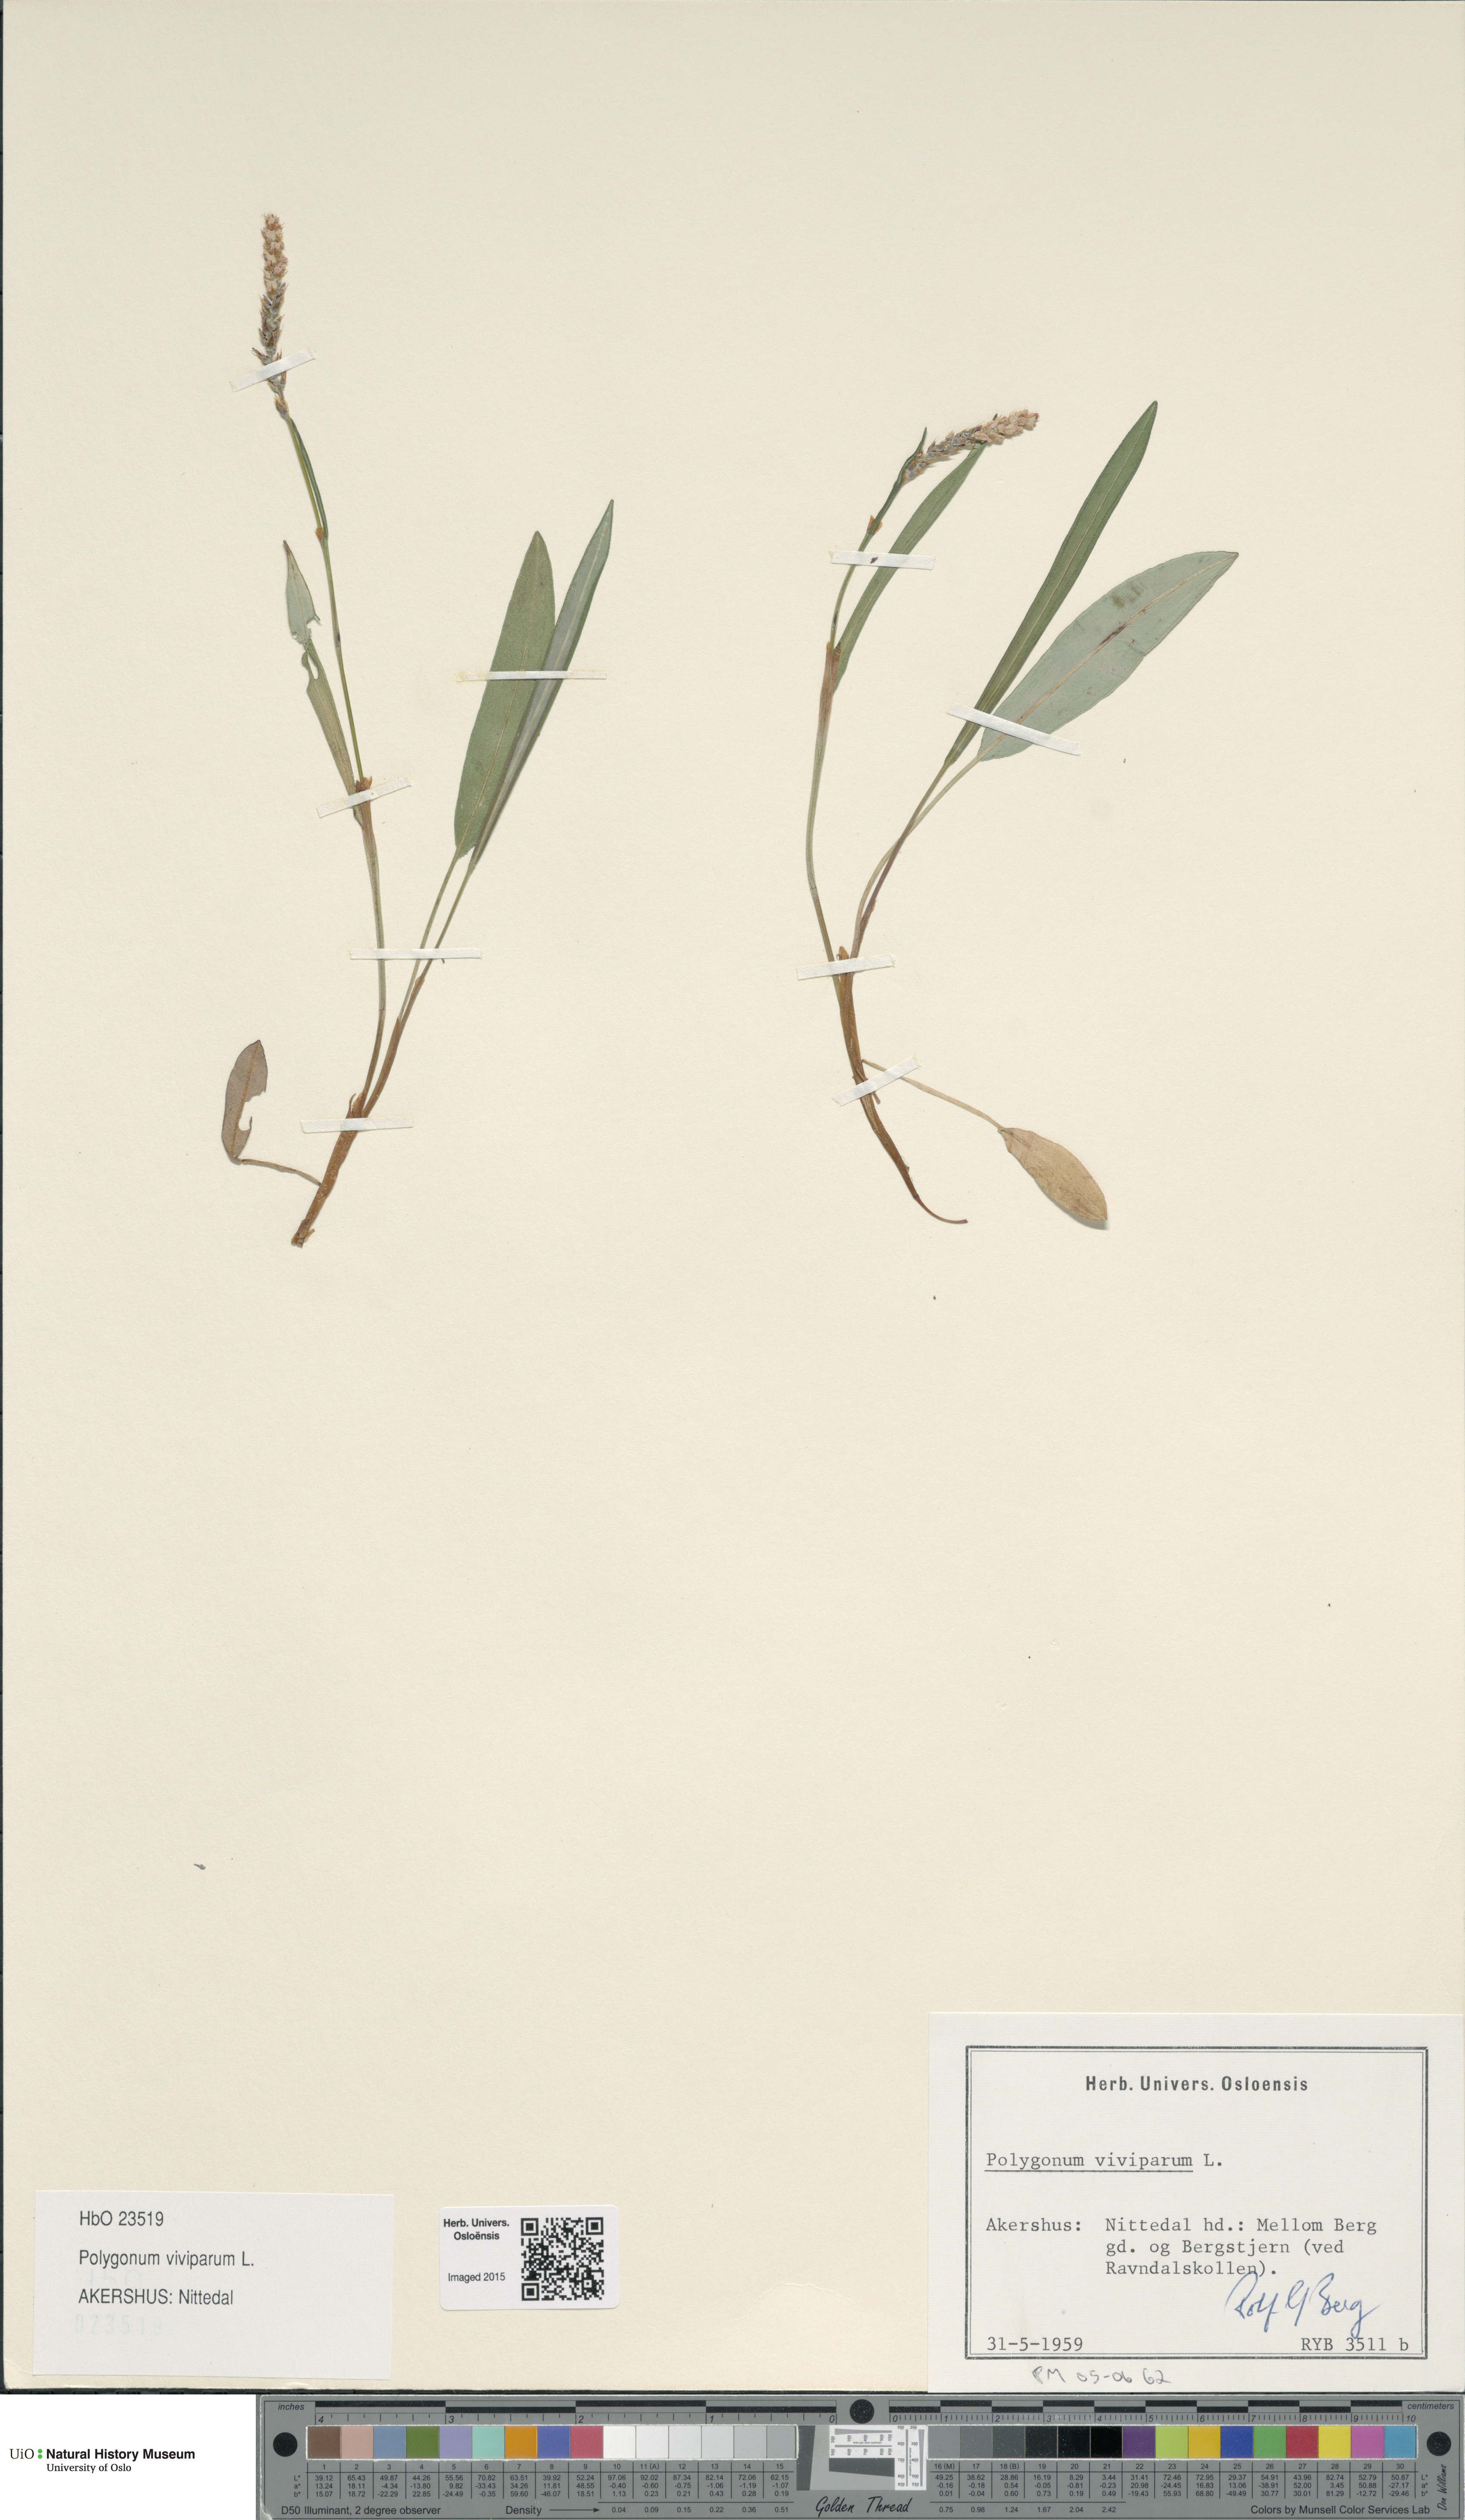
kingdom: Plantae
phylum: Tracheophyta
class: Magnoliopsida
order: Caryophyllales
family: Polygonaceae
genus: Bistorta
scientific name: Bistorta vivipara
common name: Alpine bistort
